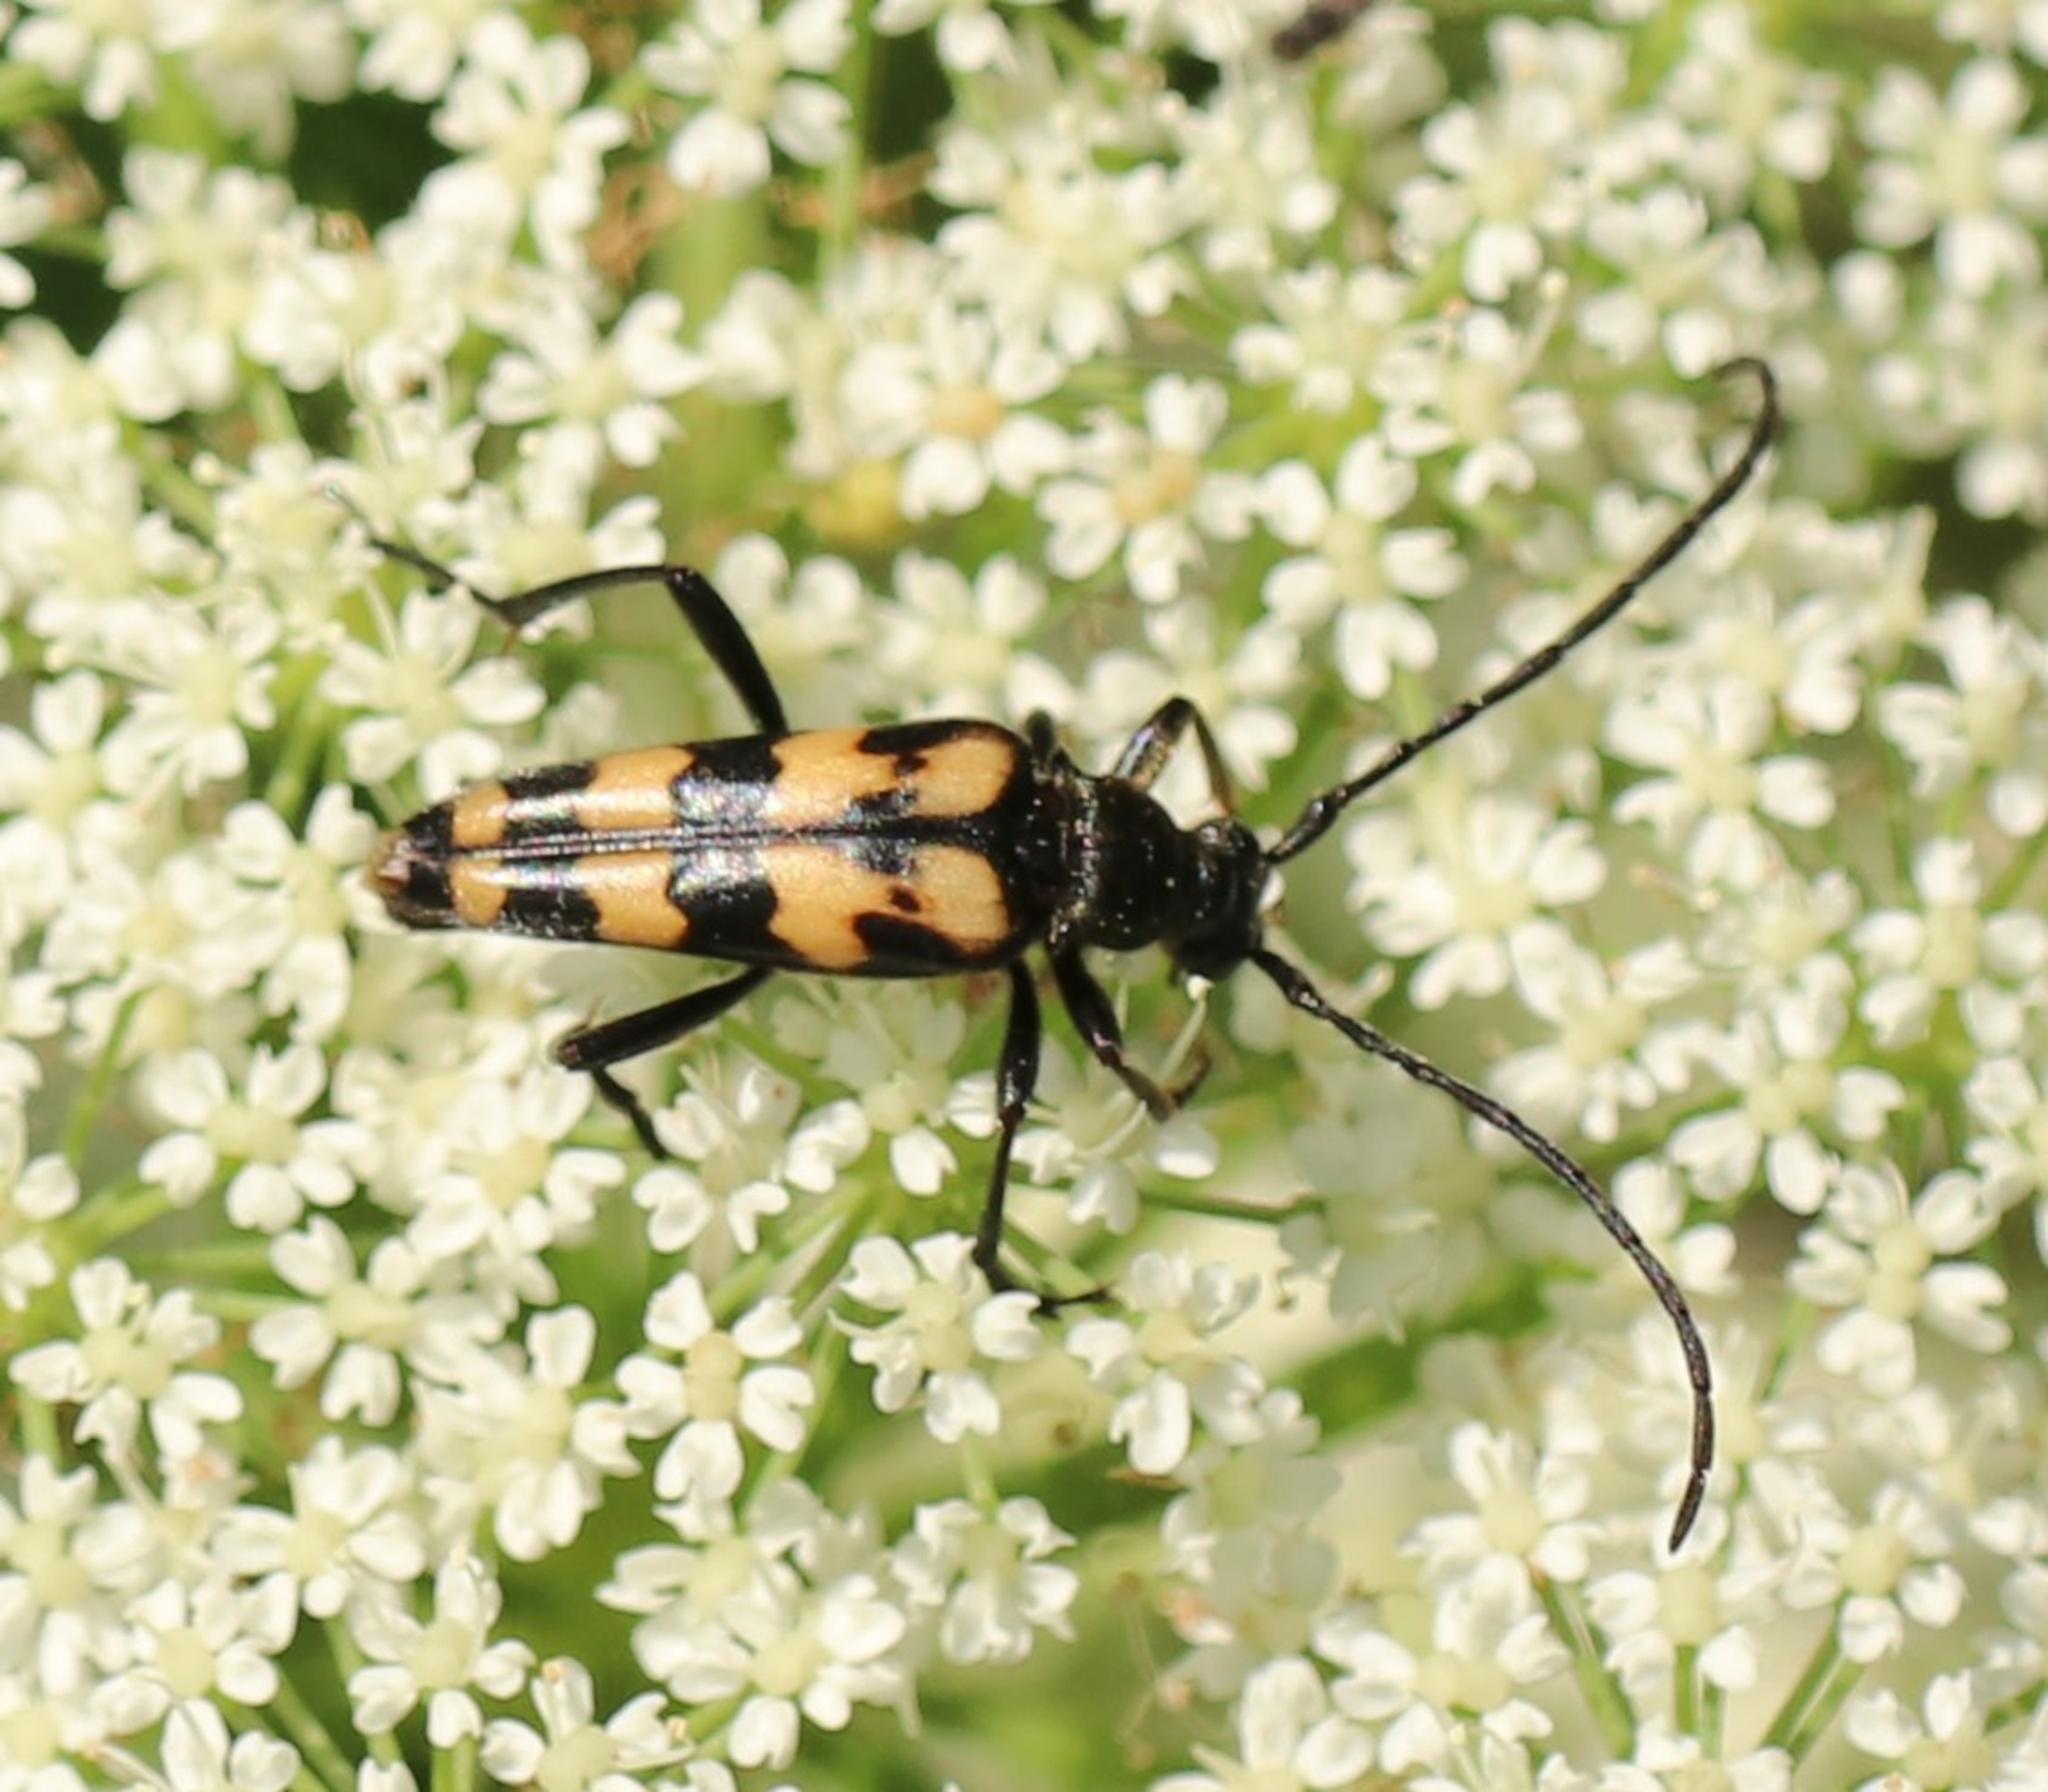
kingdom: Animalia
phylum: Arthropoda
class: Insecta
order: Coleoptera
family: Cerambycidae
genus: Leptura
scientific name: Leptura quadrifasciata
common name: Firebåndet blomsterbuk
